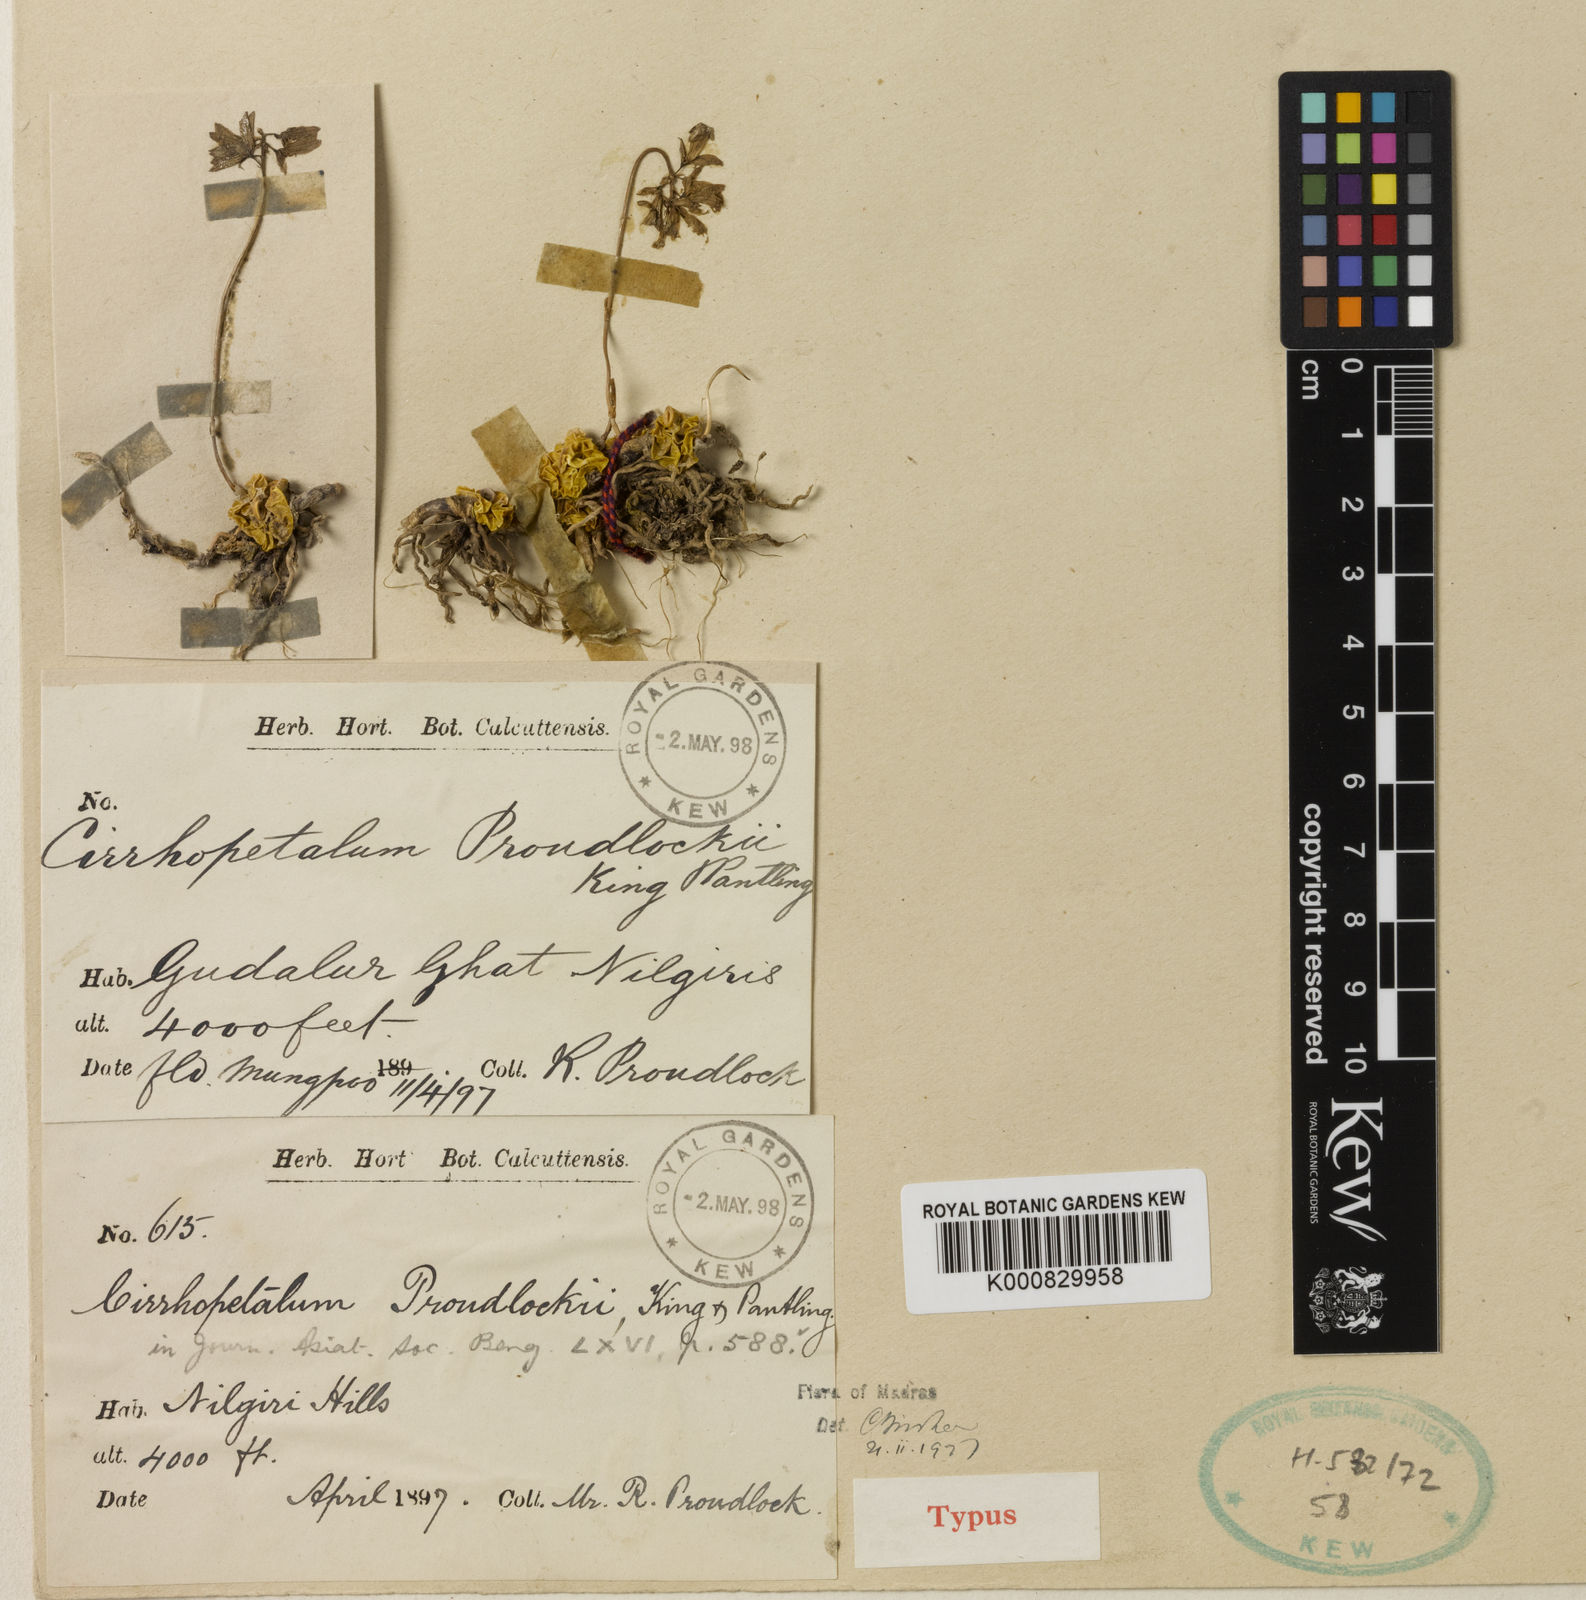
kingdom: Plantae
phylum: Tracheophyta
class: Liliopsida
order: Asparagales
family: Orchidaceae
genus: Bulbophyllum
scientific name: Bulbophyllum proudlockii
